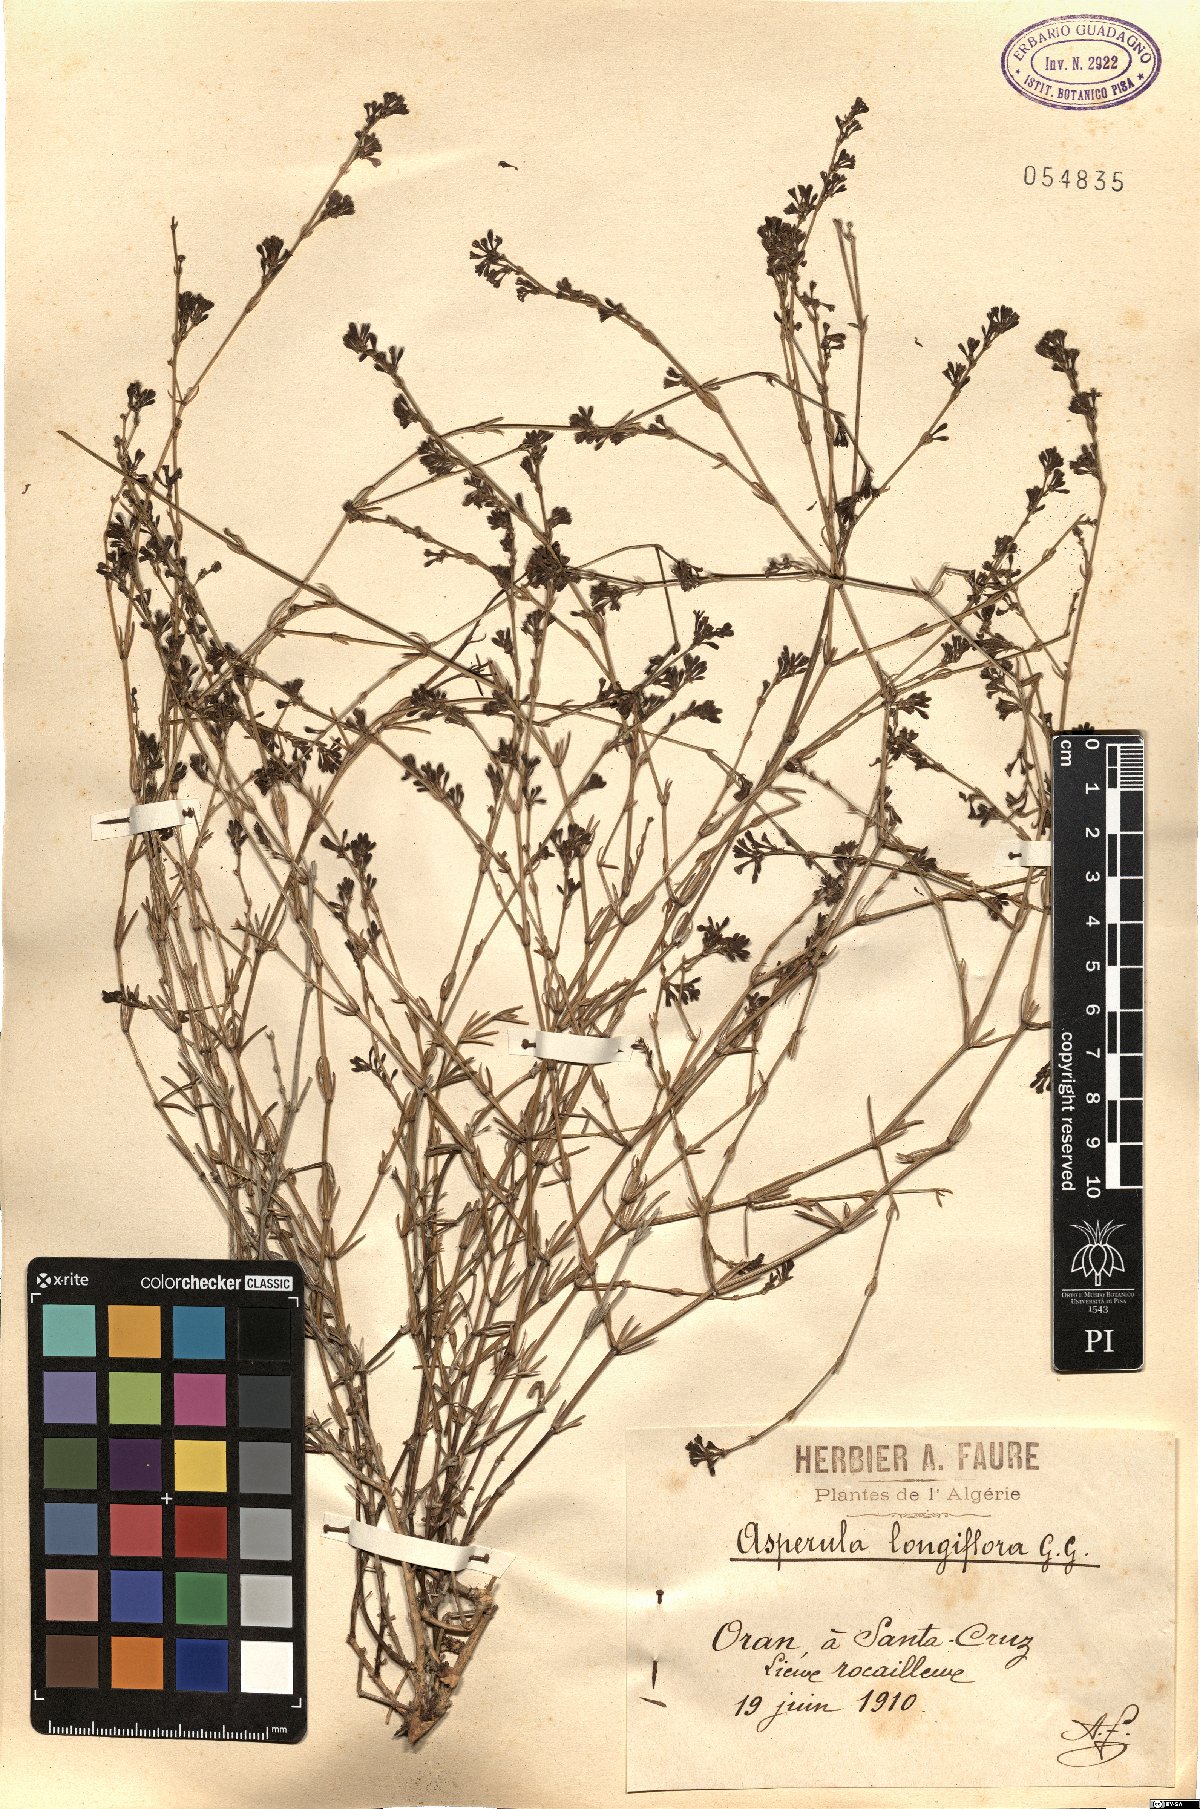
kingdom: Plantae
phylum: Tracheophyta
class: Magnoliopsida
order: Gentianales
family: Rubiaceae
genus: Cynanchica
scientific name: Cynanchica aristata
